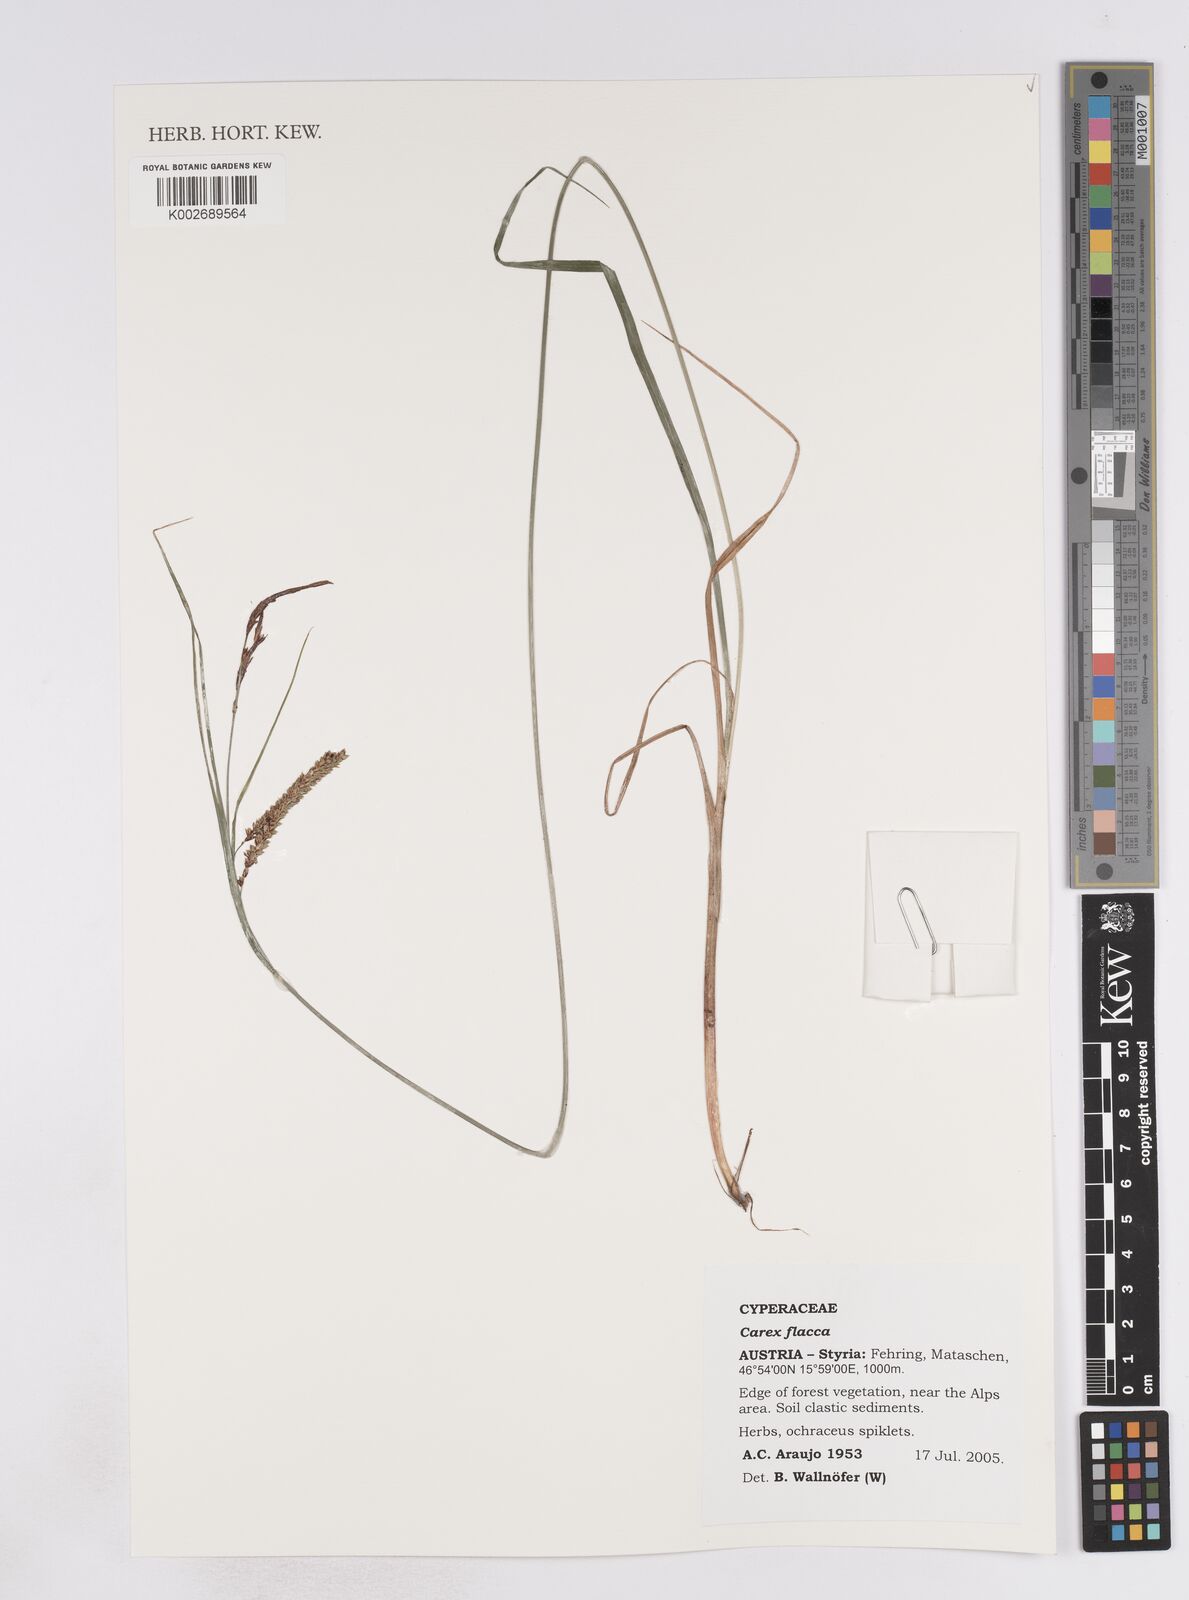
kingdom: Plantae
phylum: Tracheophyta
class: Liliopsida
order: Poales
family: Cyperaceae
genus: Carex
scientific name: Carex flacca
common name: Glaucous sedge
